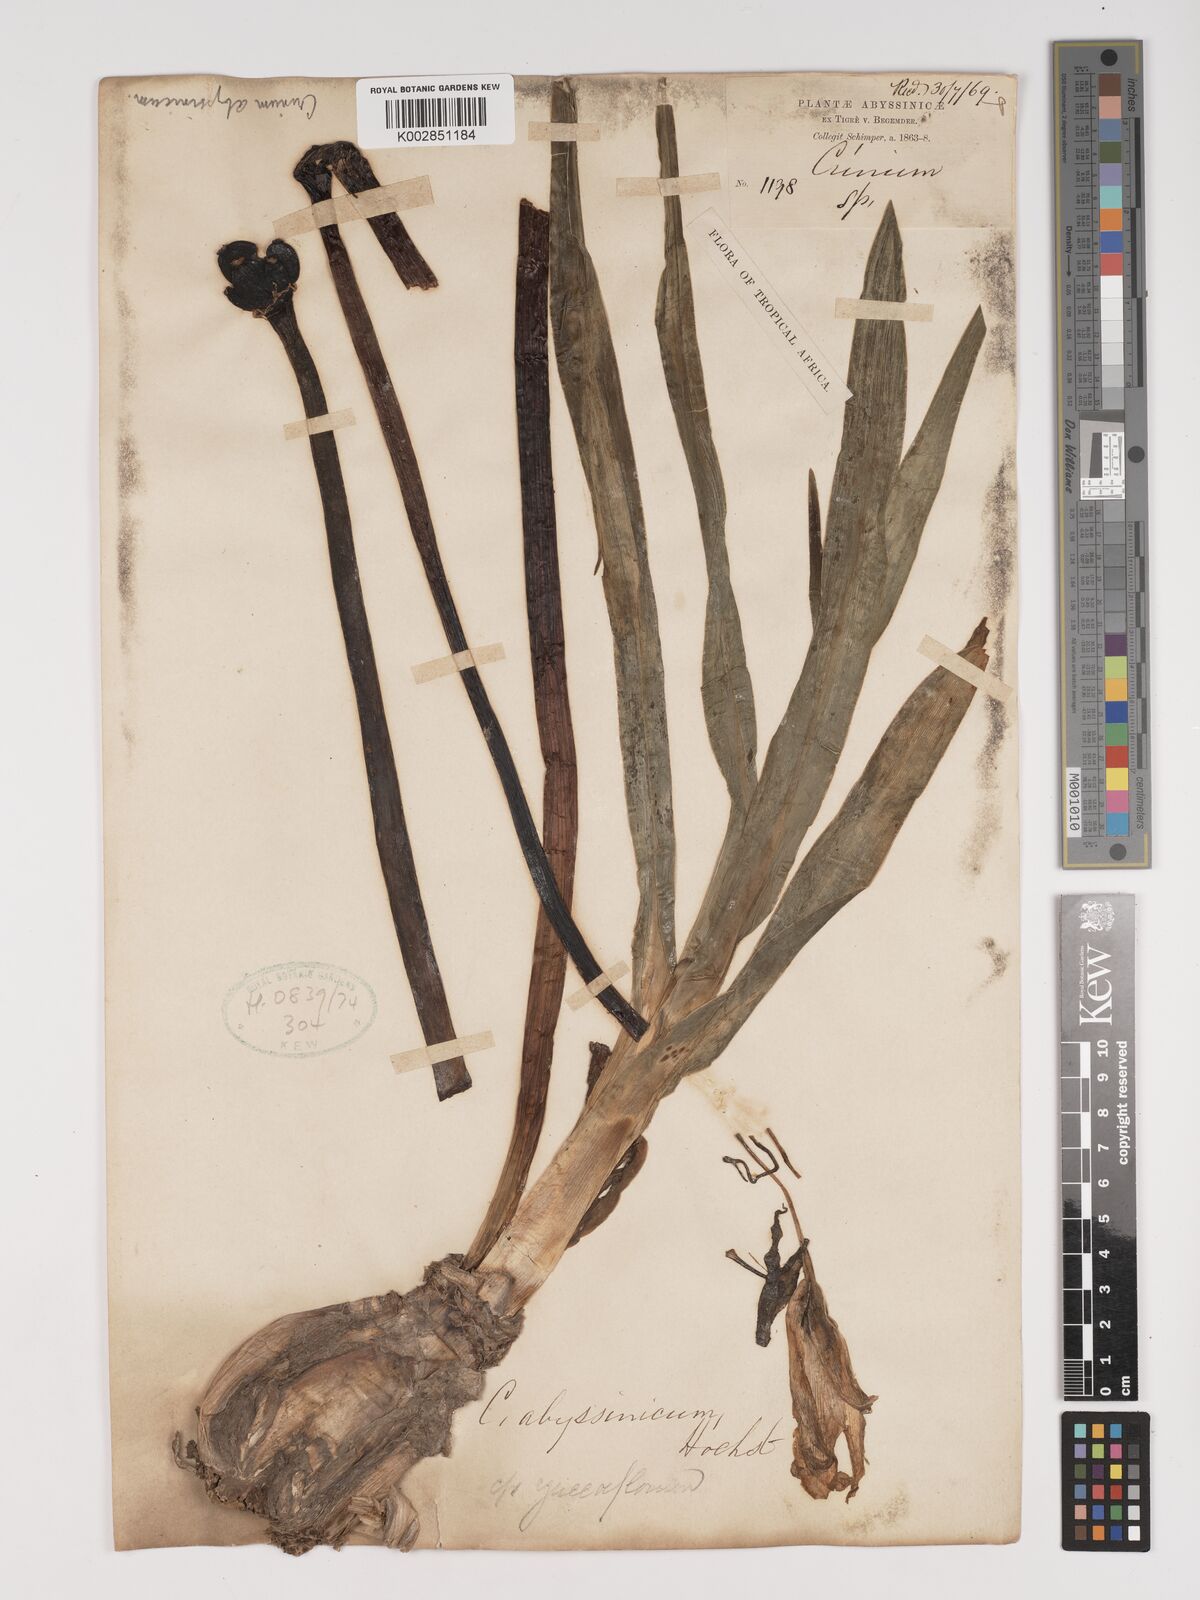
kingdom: Plantae
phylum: Tracheophyta
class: Liliopsida
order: Asparagales
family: Amaryllidaceae
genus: Crinum
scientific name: Crinum abyssinicum
